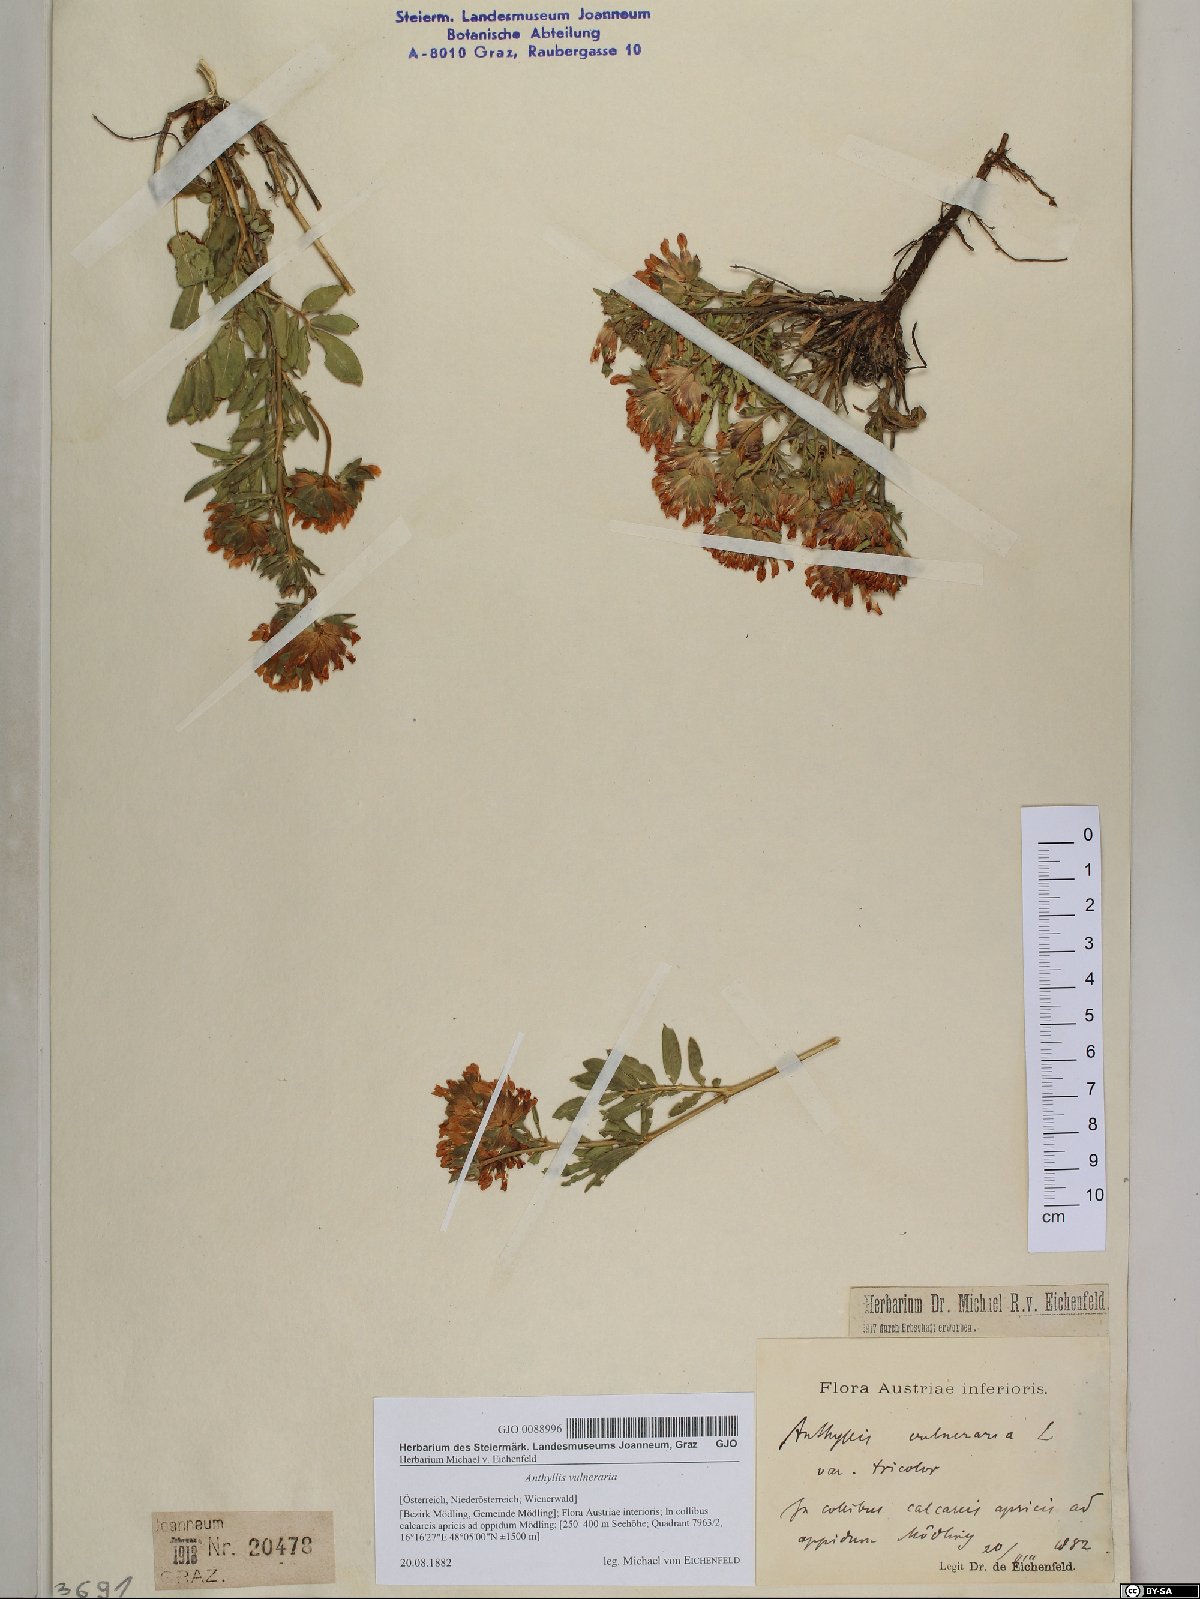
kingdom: Plantae
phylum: Tracheophyta
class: Magnoliopsida
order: Fabales
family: Fabaceae
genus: Anthyllis
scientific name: Anthyllis vulneraria
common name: Kidney vetch
